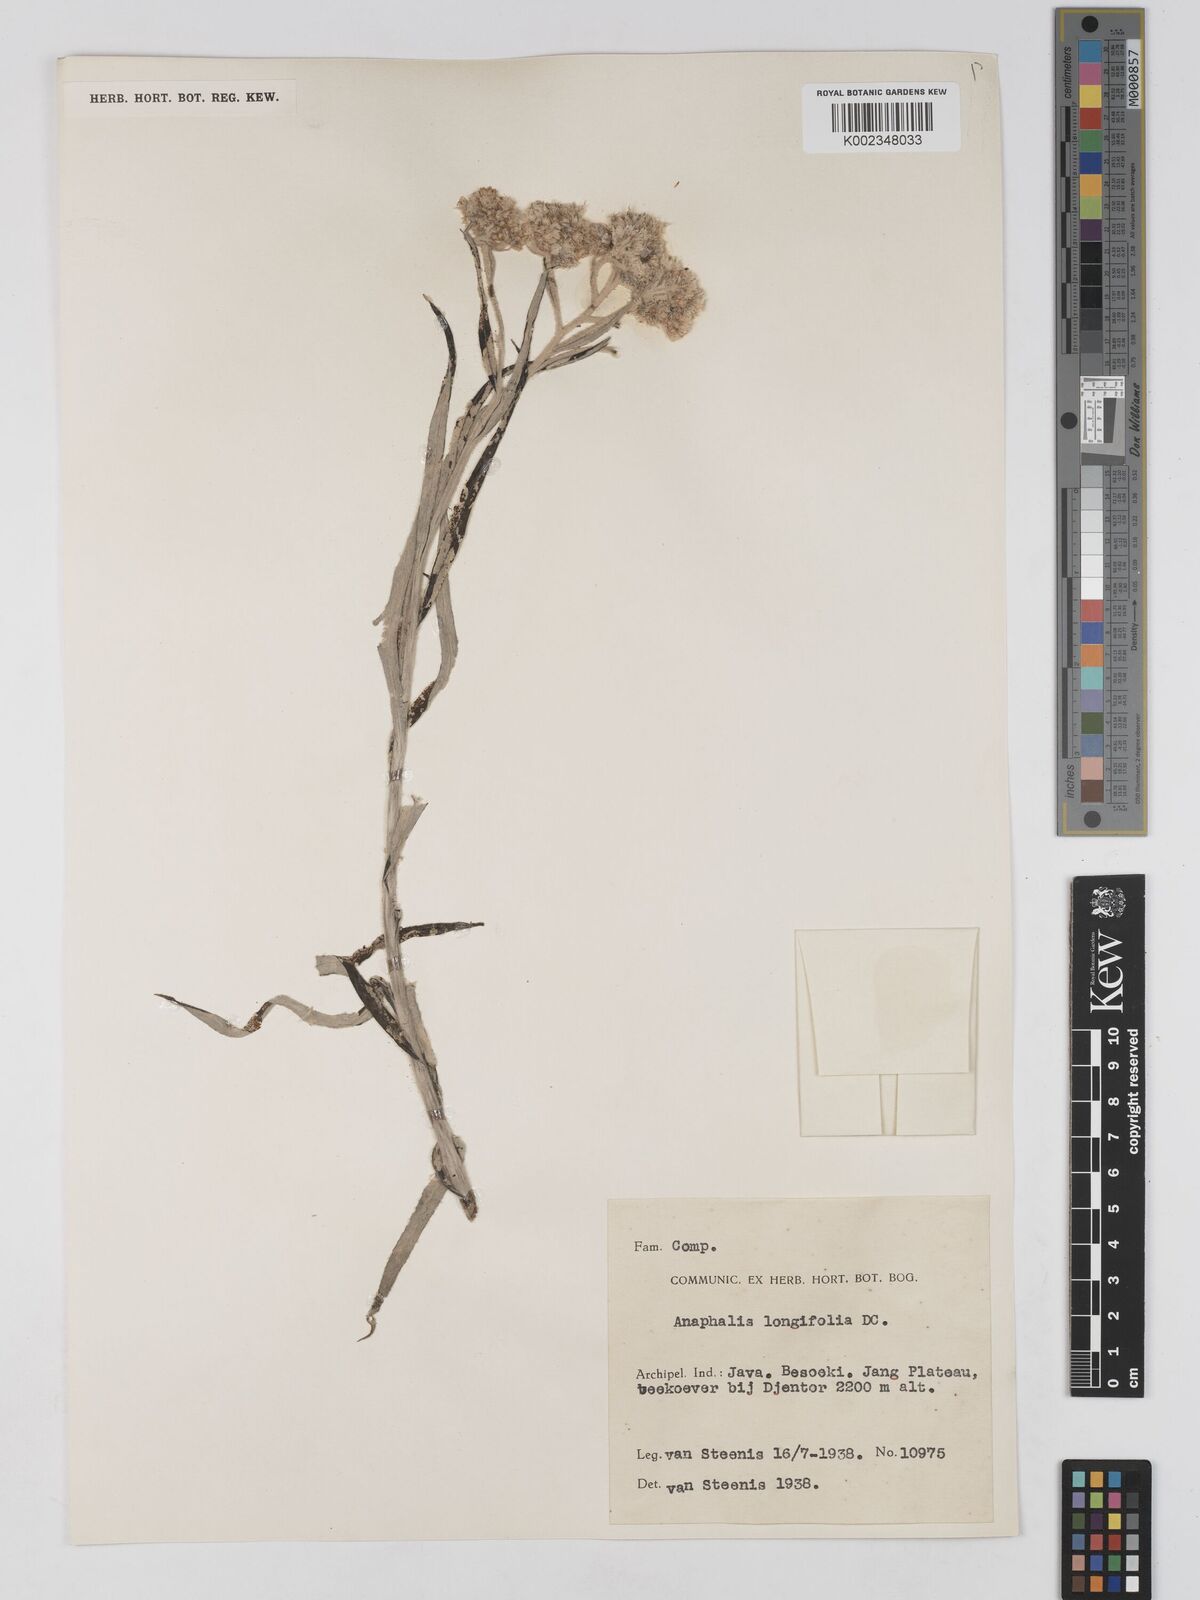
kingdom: Plantae
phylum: Tracheophyta
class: Magnoliopsida
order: Asterales
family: Asteraceae
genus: Anaphalis
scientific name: Anaphalis longifolia
